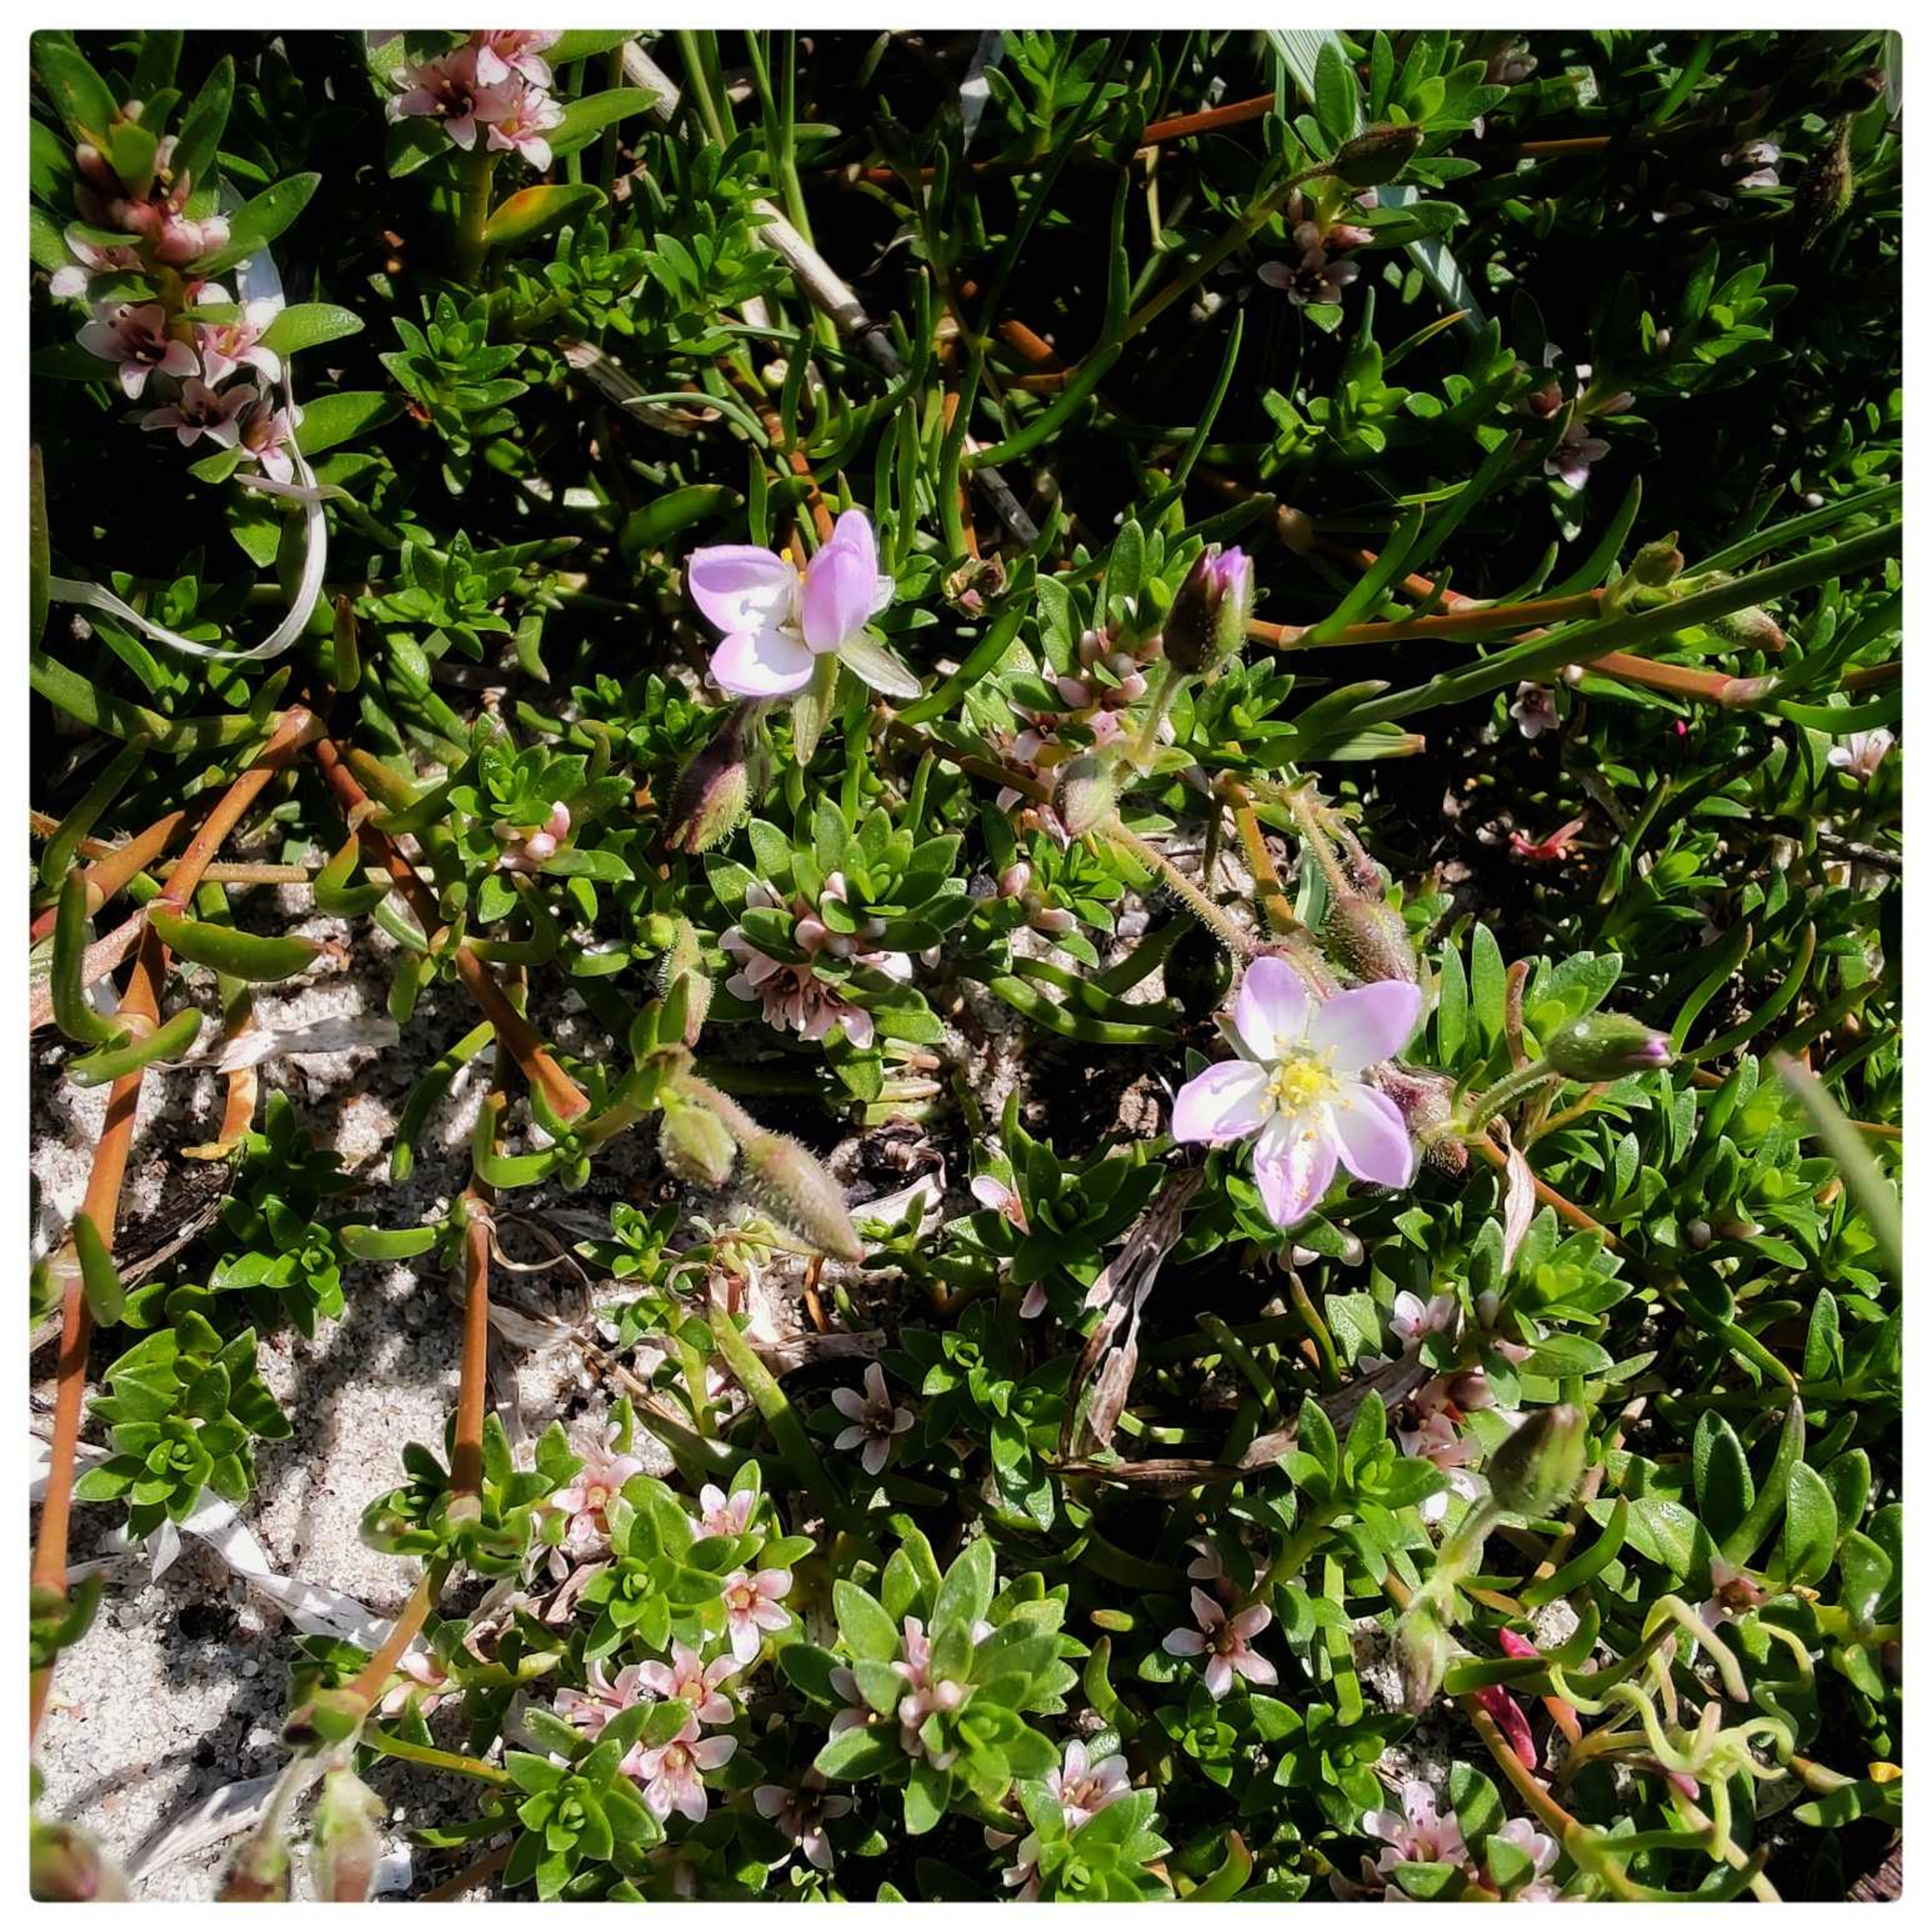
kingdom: Plantae
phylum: Tracheophyta
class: Magnoliopsida
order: Caryophyllales
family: Caryophyllaceae
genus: Spergularia
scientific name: Spergularia media
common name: Vingefrøet hindeknæ
